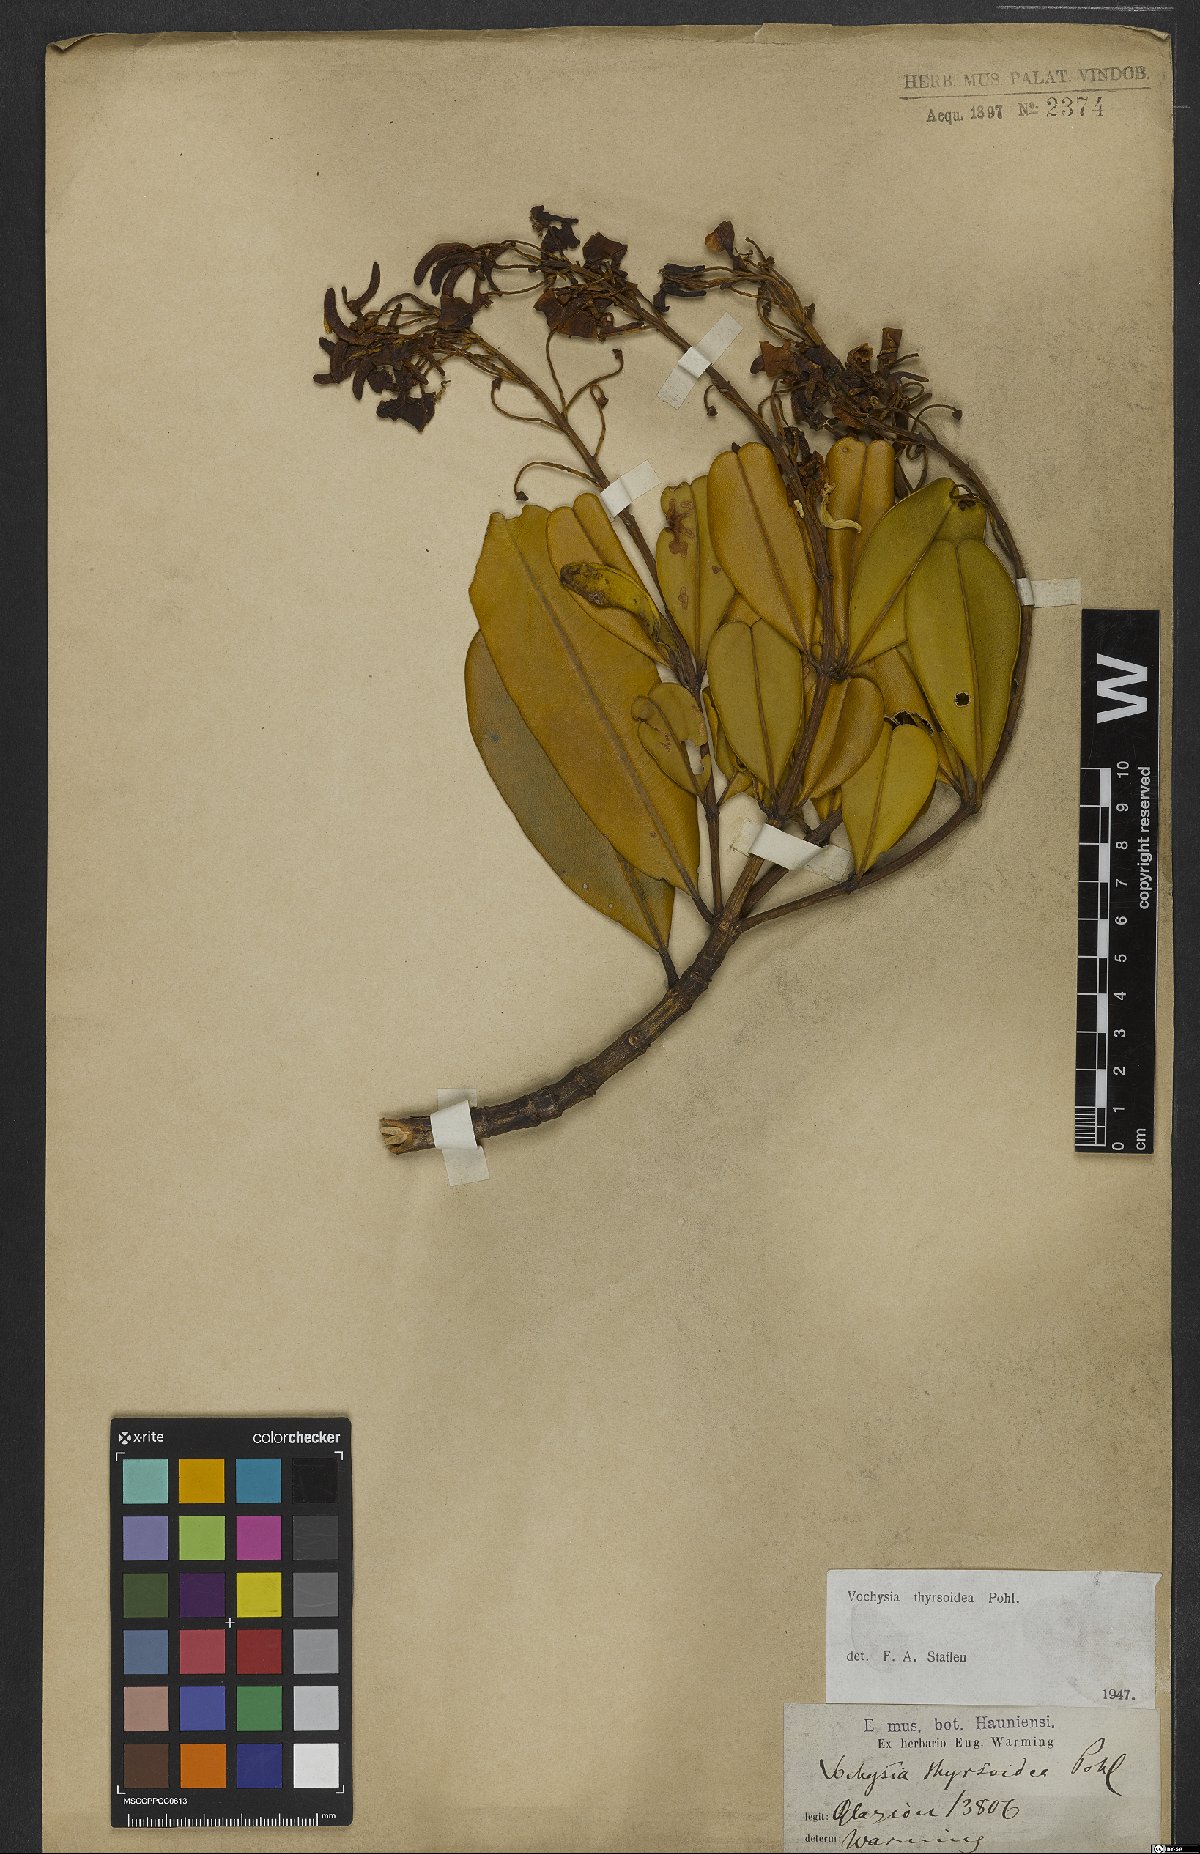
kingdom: Plantae
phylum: Tracheophyta
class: Magnoliopsida
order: Myrtales
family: Vochysiaceae
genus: Vochysia
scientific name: Vochysia thyrsoidea
